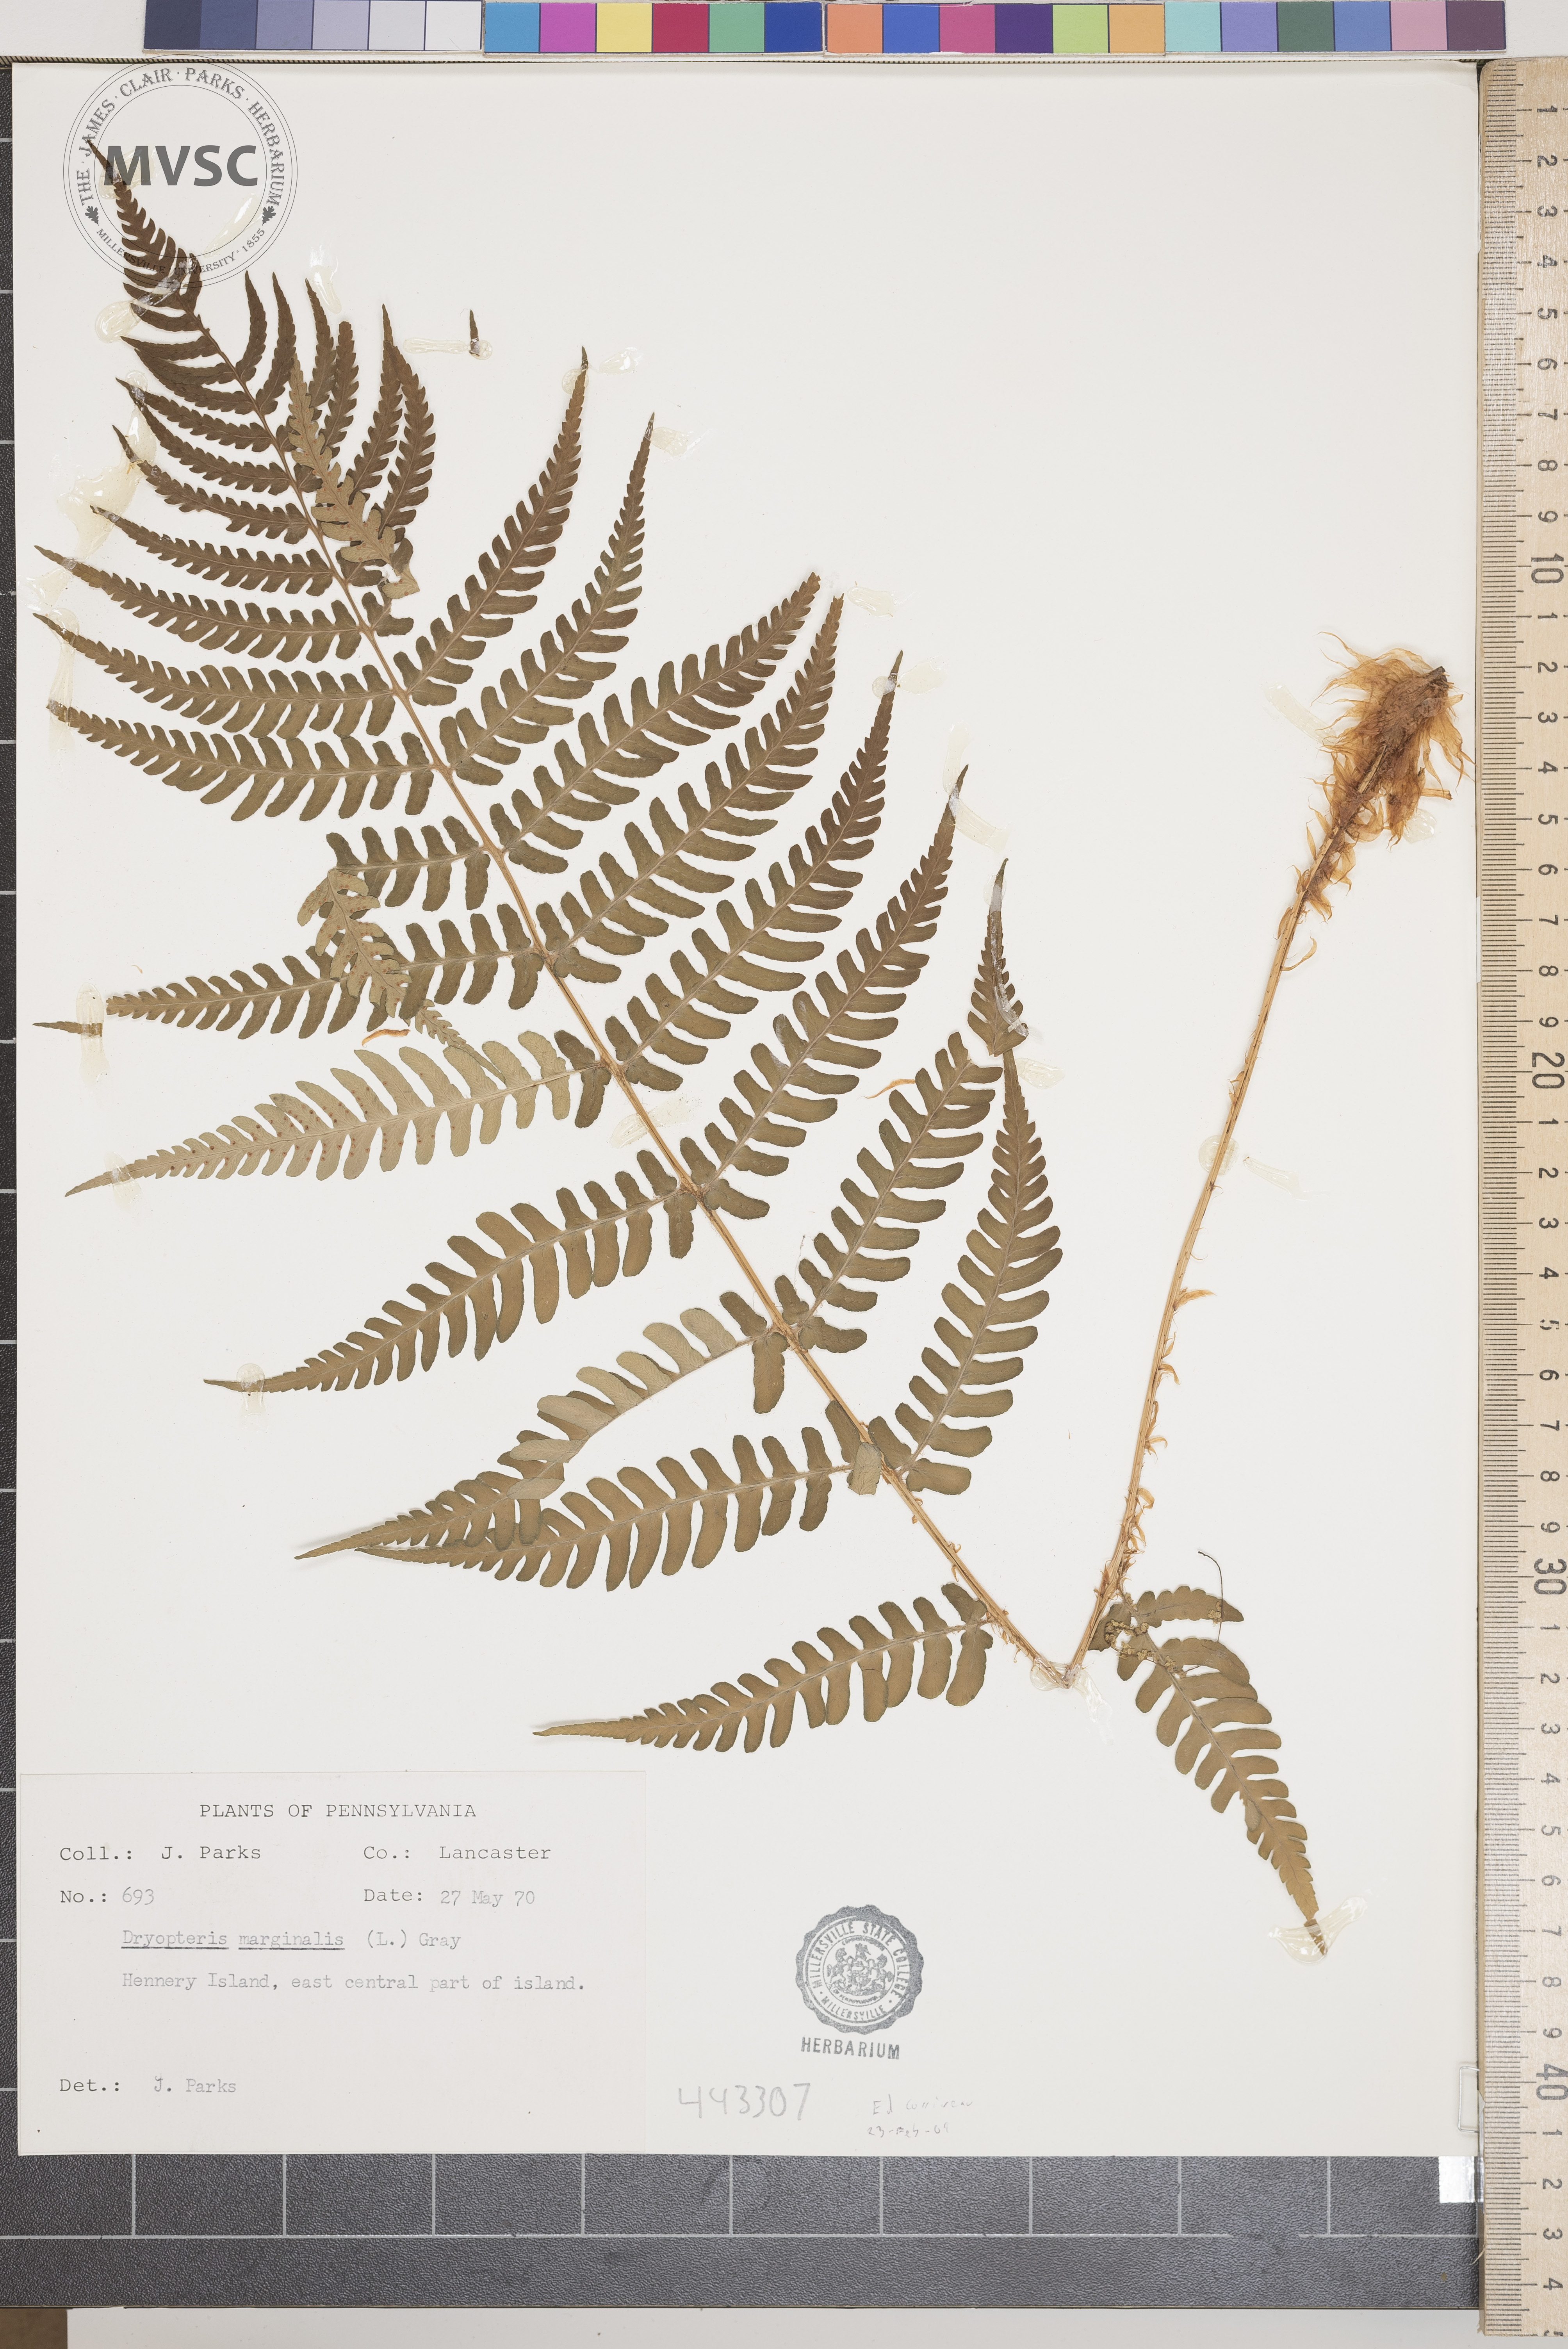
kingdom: Plantae
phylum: Tracheophyta
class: Polypodiopsida
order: Polypodiales
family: Dryopteridaceae
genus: Dryopteris
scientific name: Dryopteris marginalis
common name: Marginal wood fern
